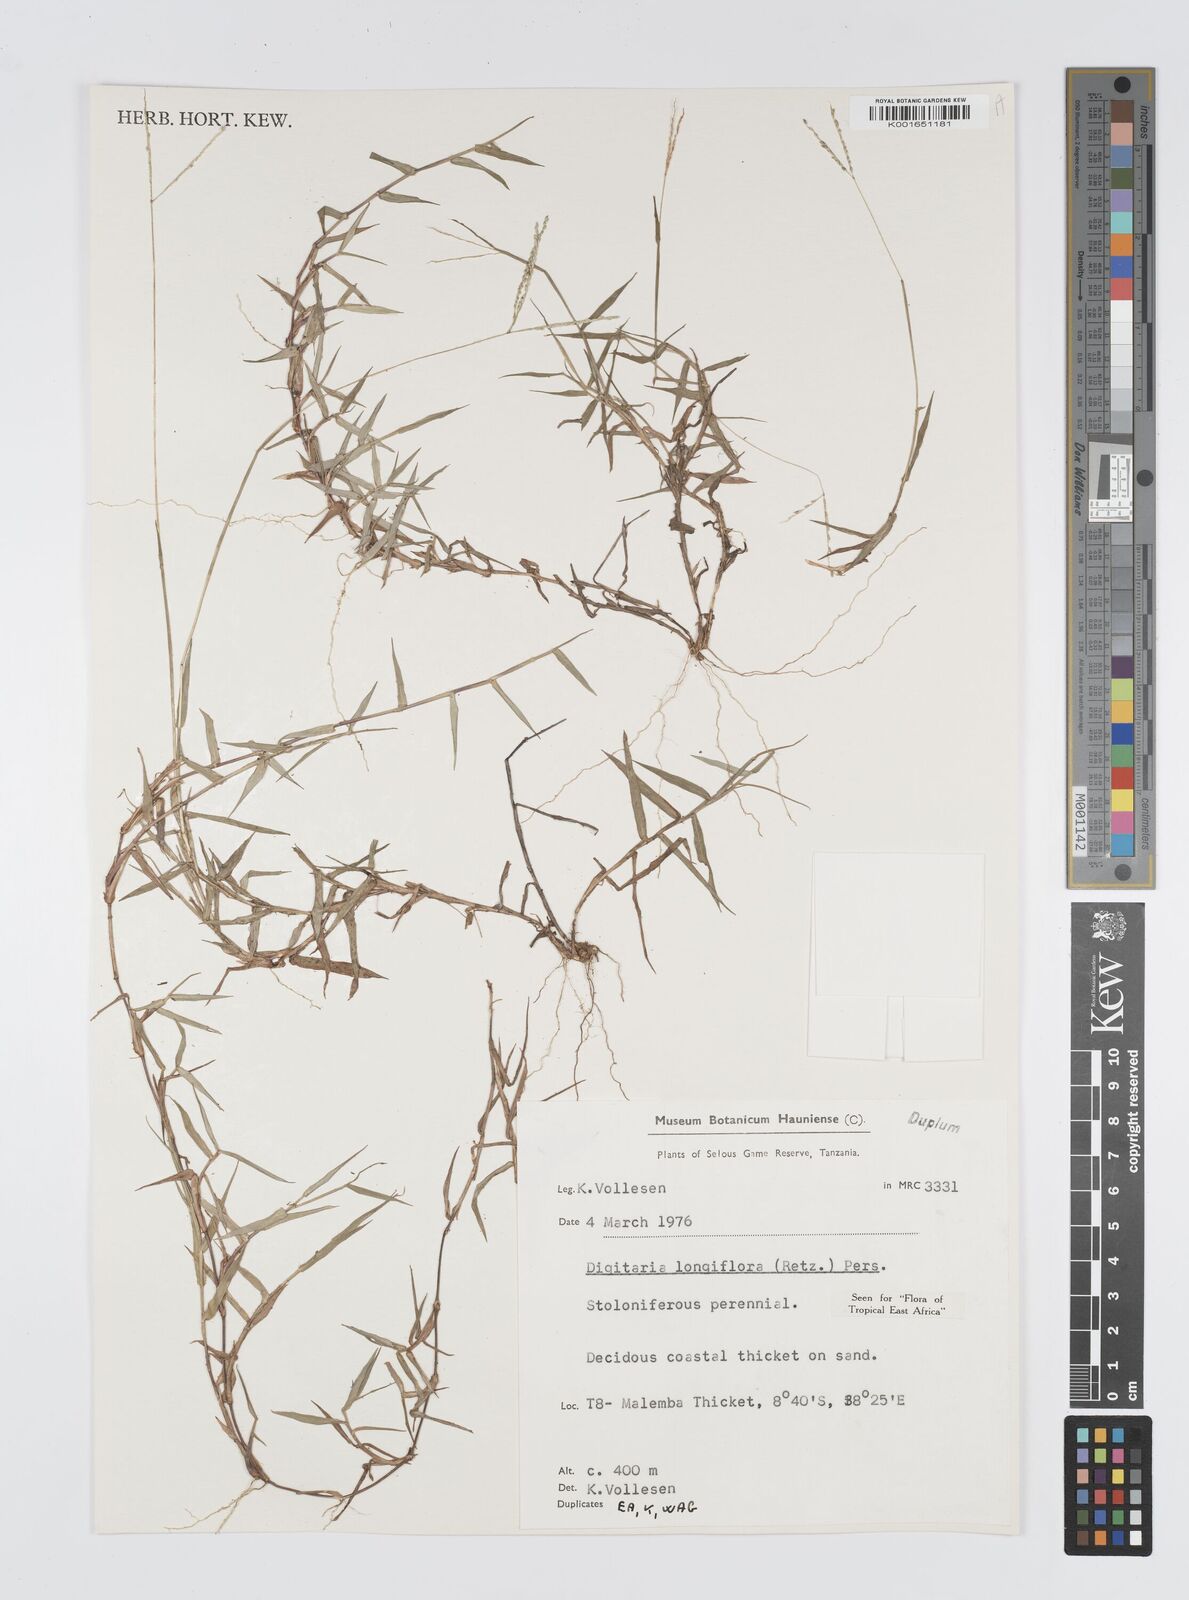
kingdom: Plantae
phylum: Tracheophyta
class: Liliopsida
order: Poales
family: Poaceae
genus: Digitaria
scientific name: Digitaria longiflora
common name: Wire crabgrass
